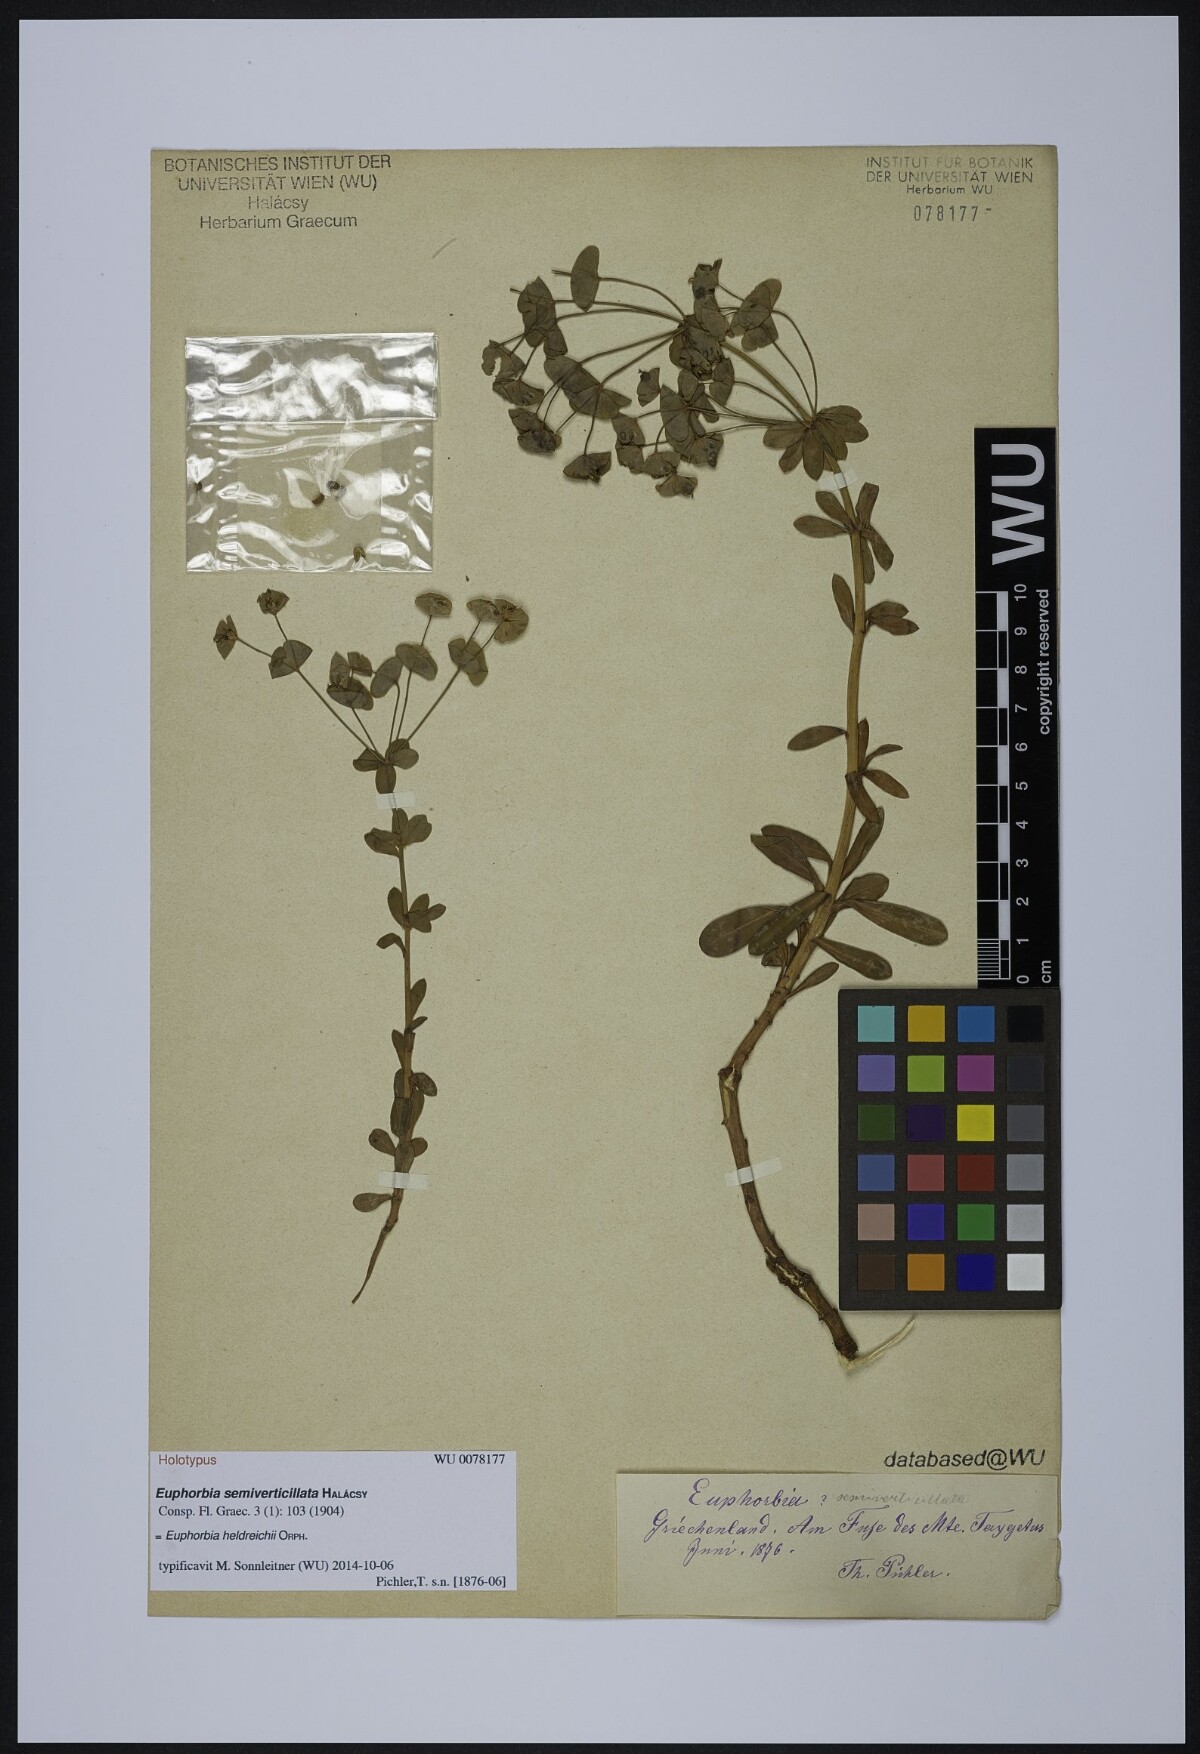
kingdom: Plantae
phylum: Tracheophyta
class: Magnoliopsida
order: Malpighiales
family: Euphorbiaceae
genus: Euphorbia
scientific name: Euphorbia heldreichii
